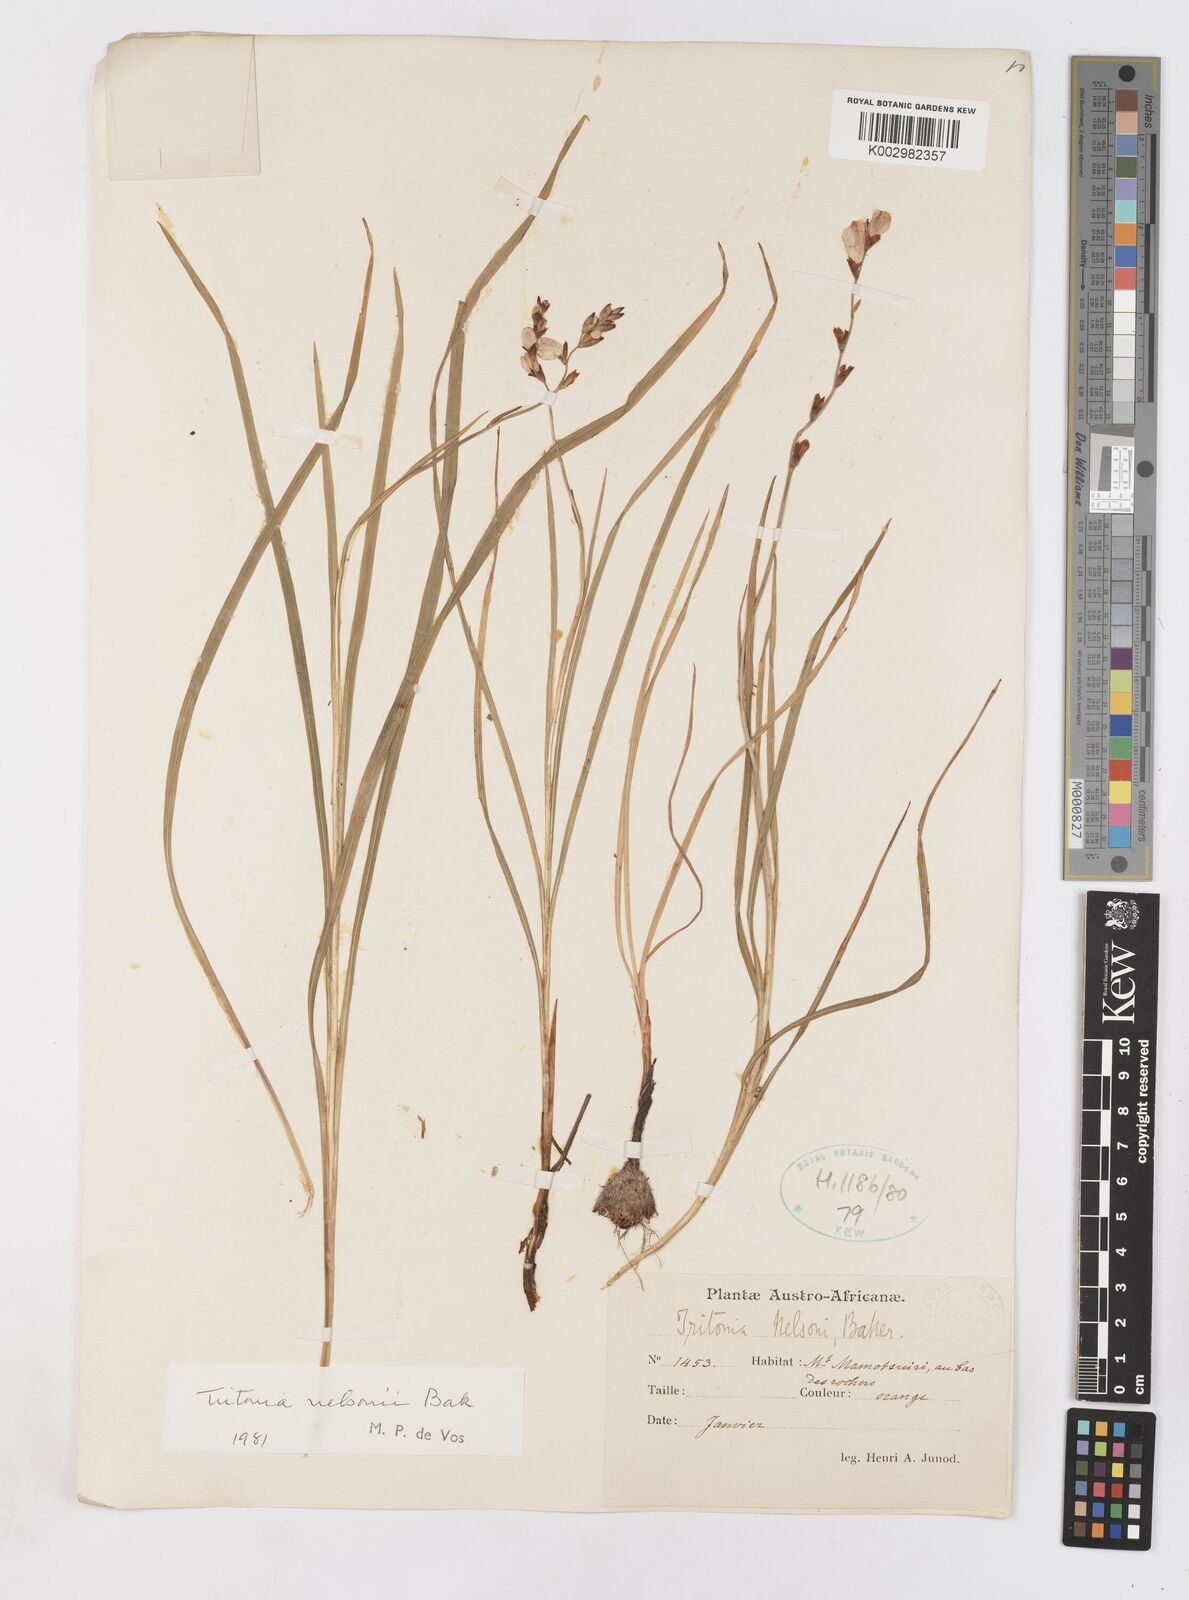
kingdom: Plantae
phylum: Tracheophyta
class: Liliopsida
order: Asparagales
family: Iridaceae
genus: Tritonia
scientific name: Tritonia nelsonii
